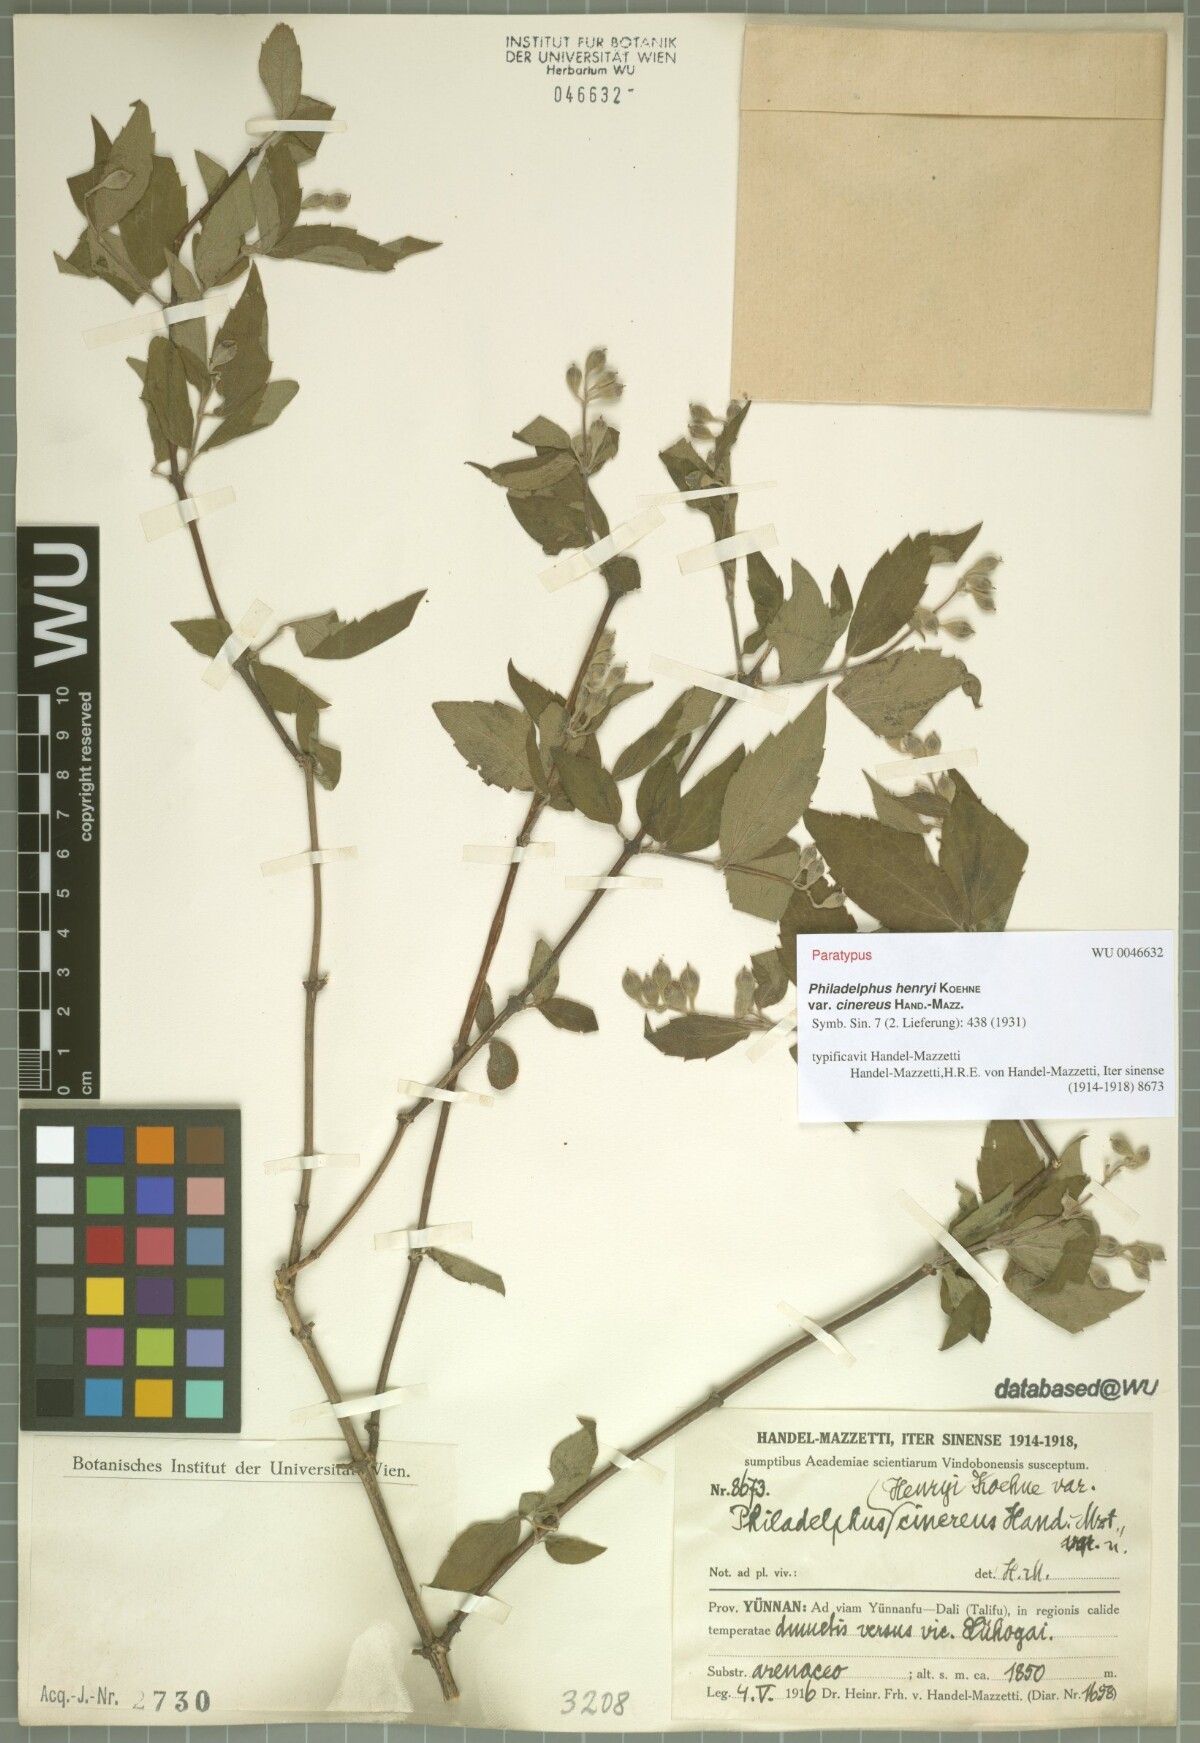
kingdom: Plantae
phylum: Tracheophyta
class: Magnoliopsida
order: Cornales
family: Hydrangeaceae
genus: Philadelphus
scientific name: Philadelphus henryi
